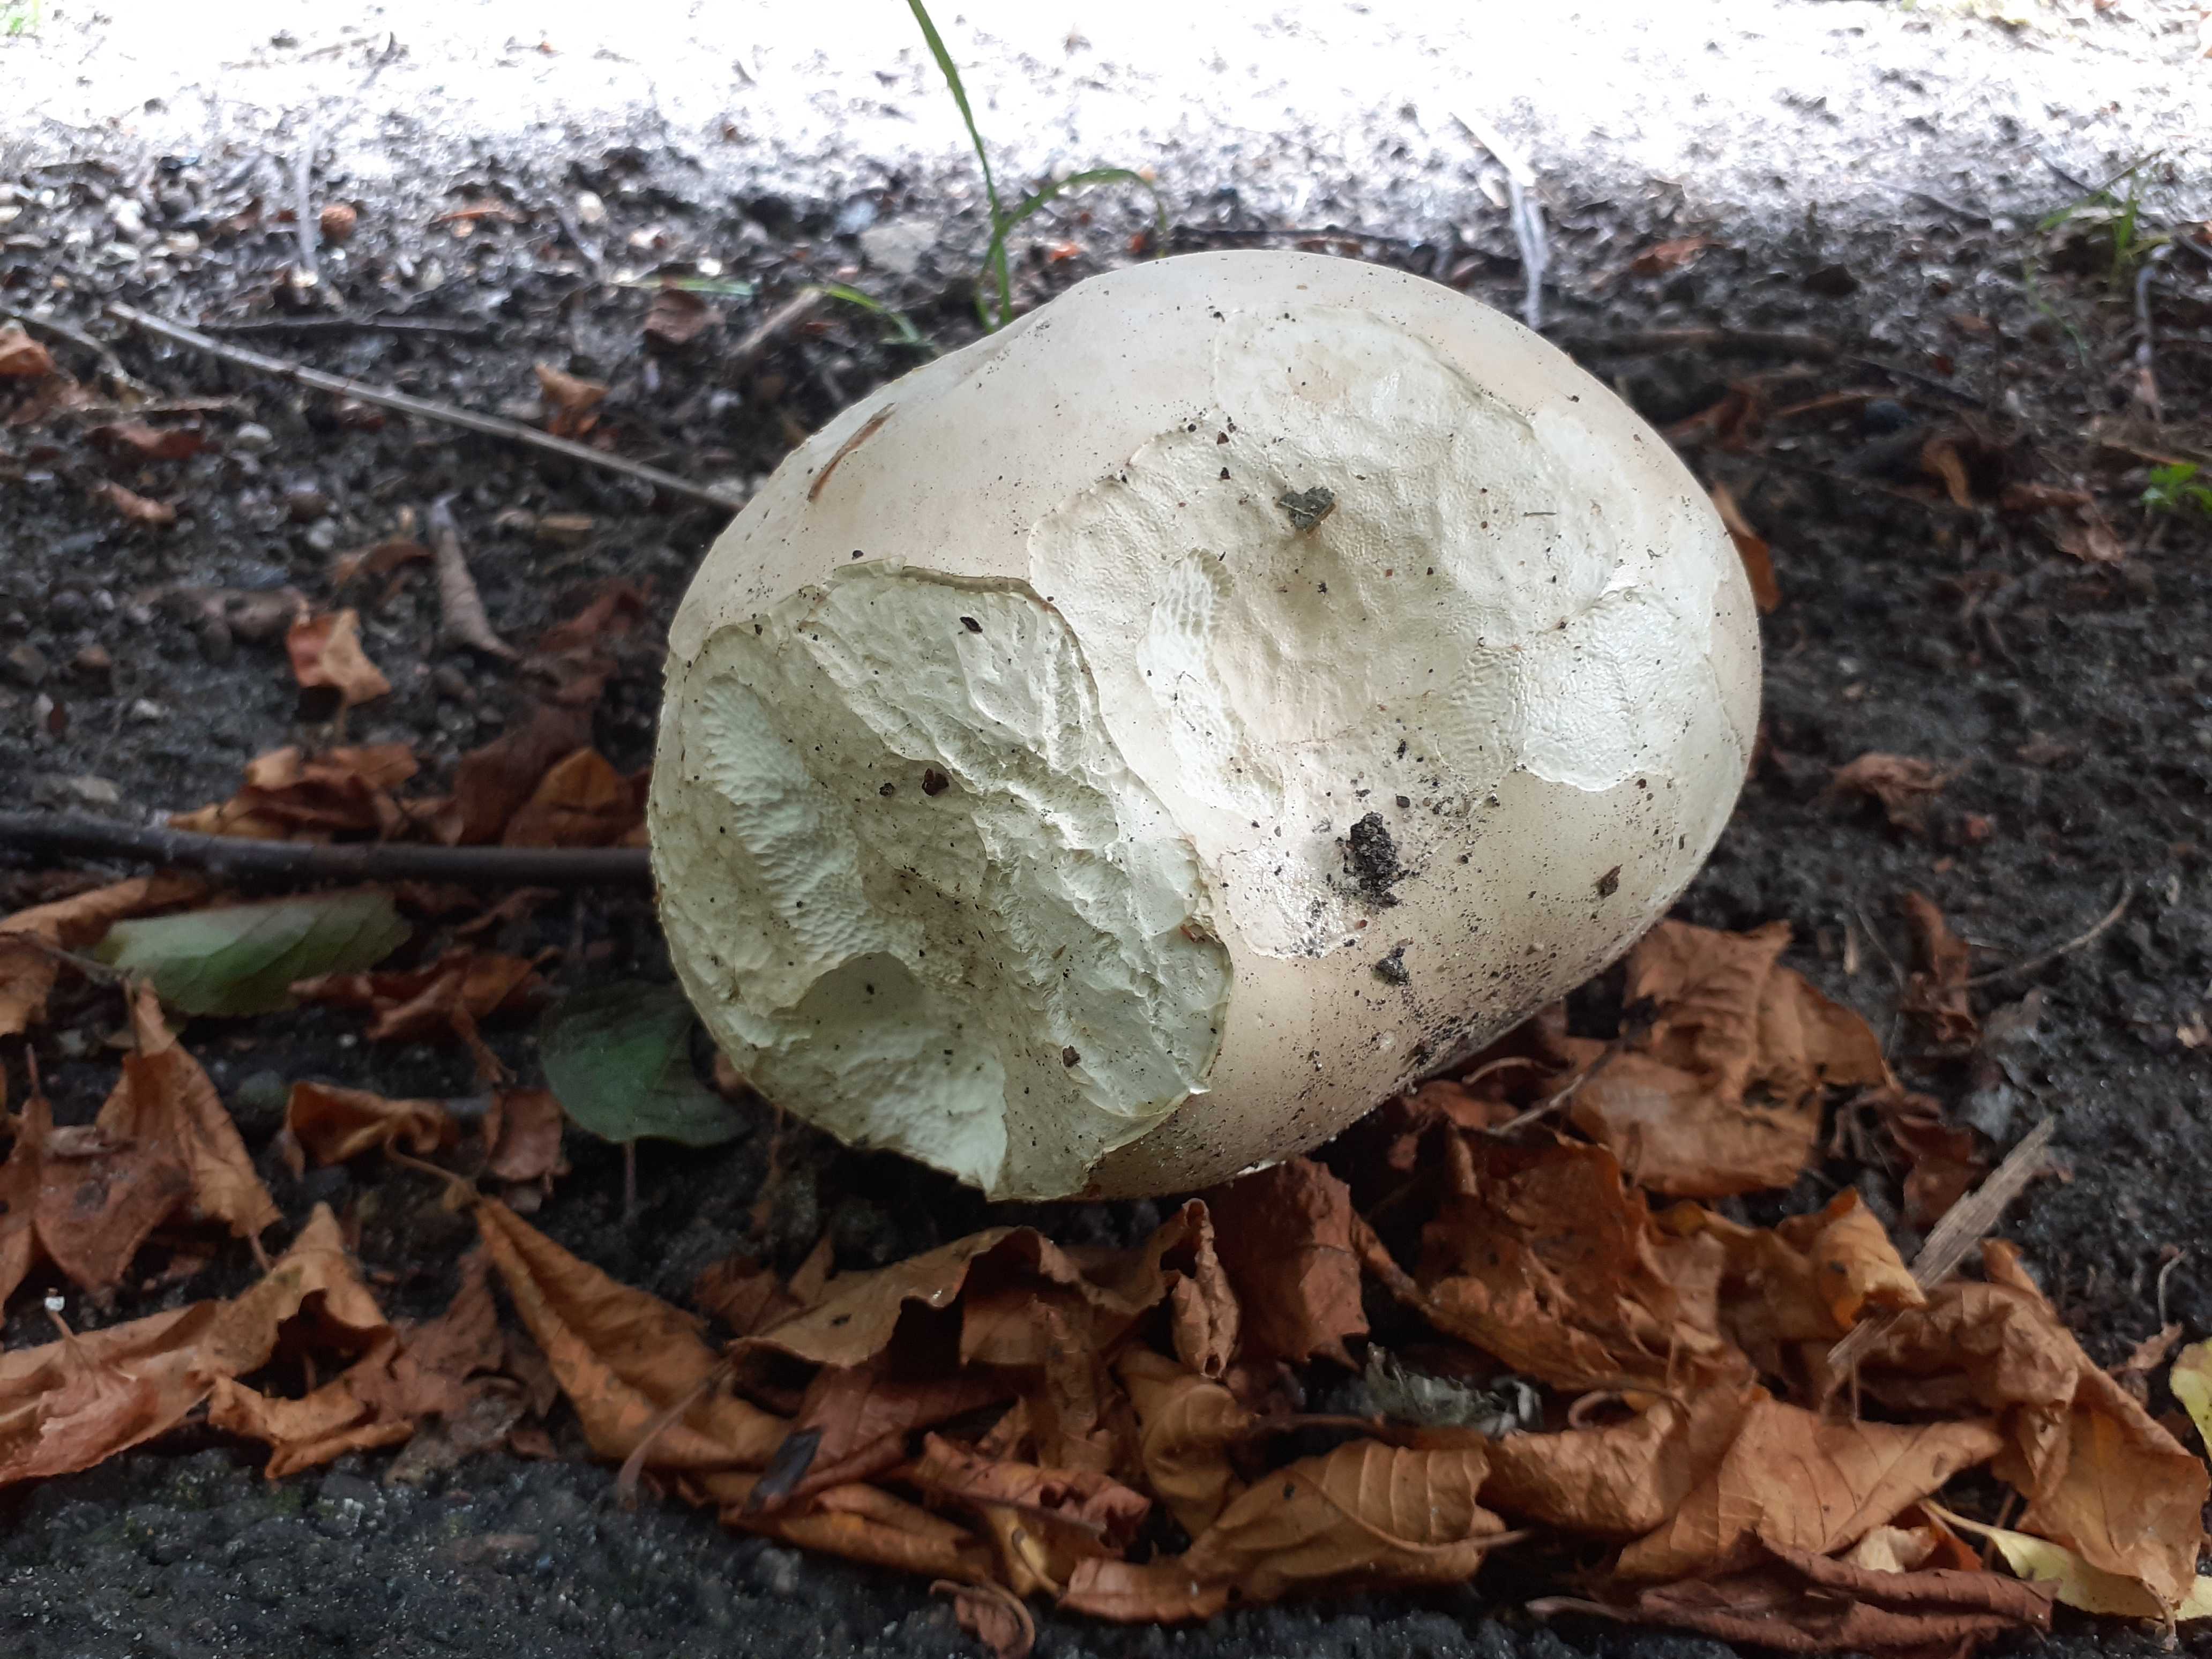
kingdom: Fungi
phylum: Basidiomycota
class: Agaricomycetes
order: Agaricales
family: Lycoperdaceae
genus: Calvatia
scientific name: Calvatia gigantea
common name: kæmpestøvbold
